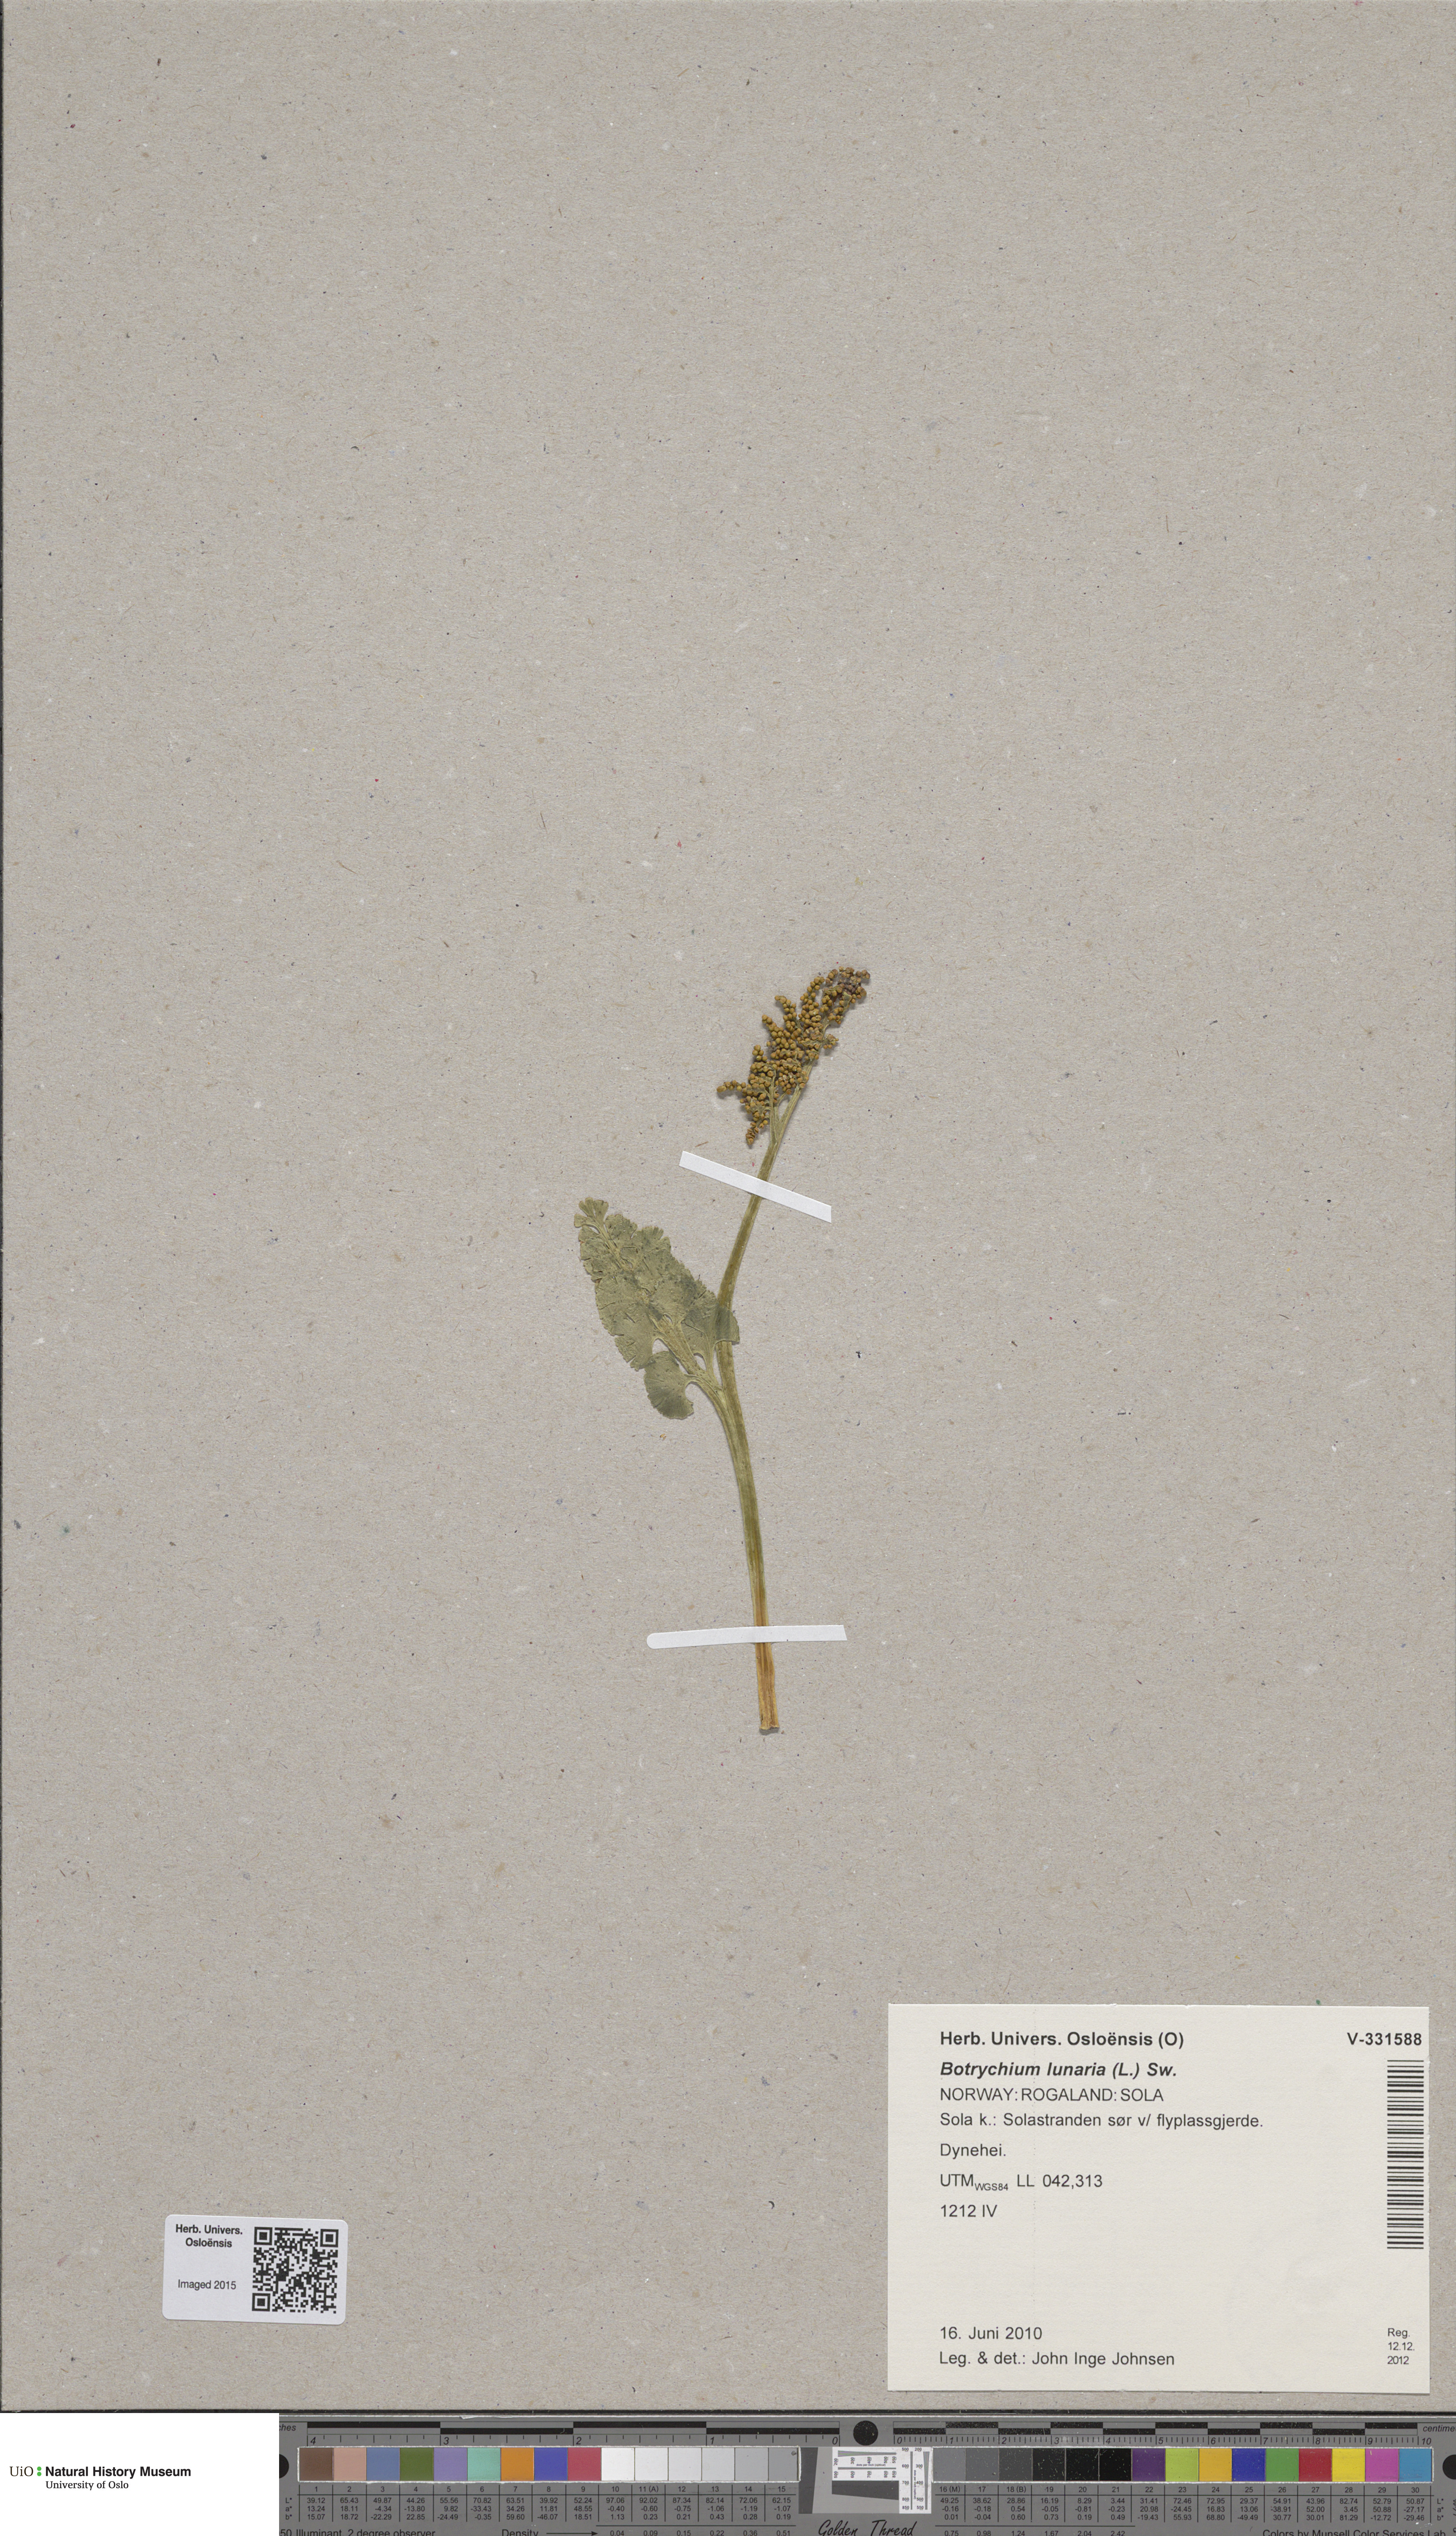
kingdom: Plantae
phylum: Tracheophyta
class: Polypodiopsida
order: Ophioglossales
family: Ophioglossaceae
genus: Botrychium
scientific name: Botrychium lunaria
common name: Moonwort
